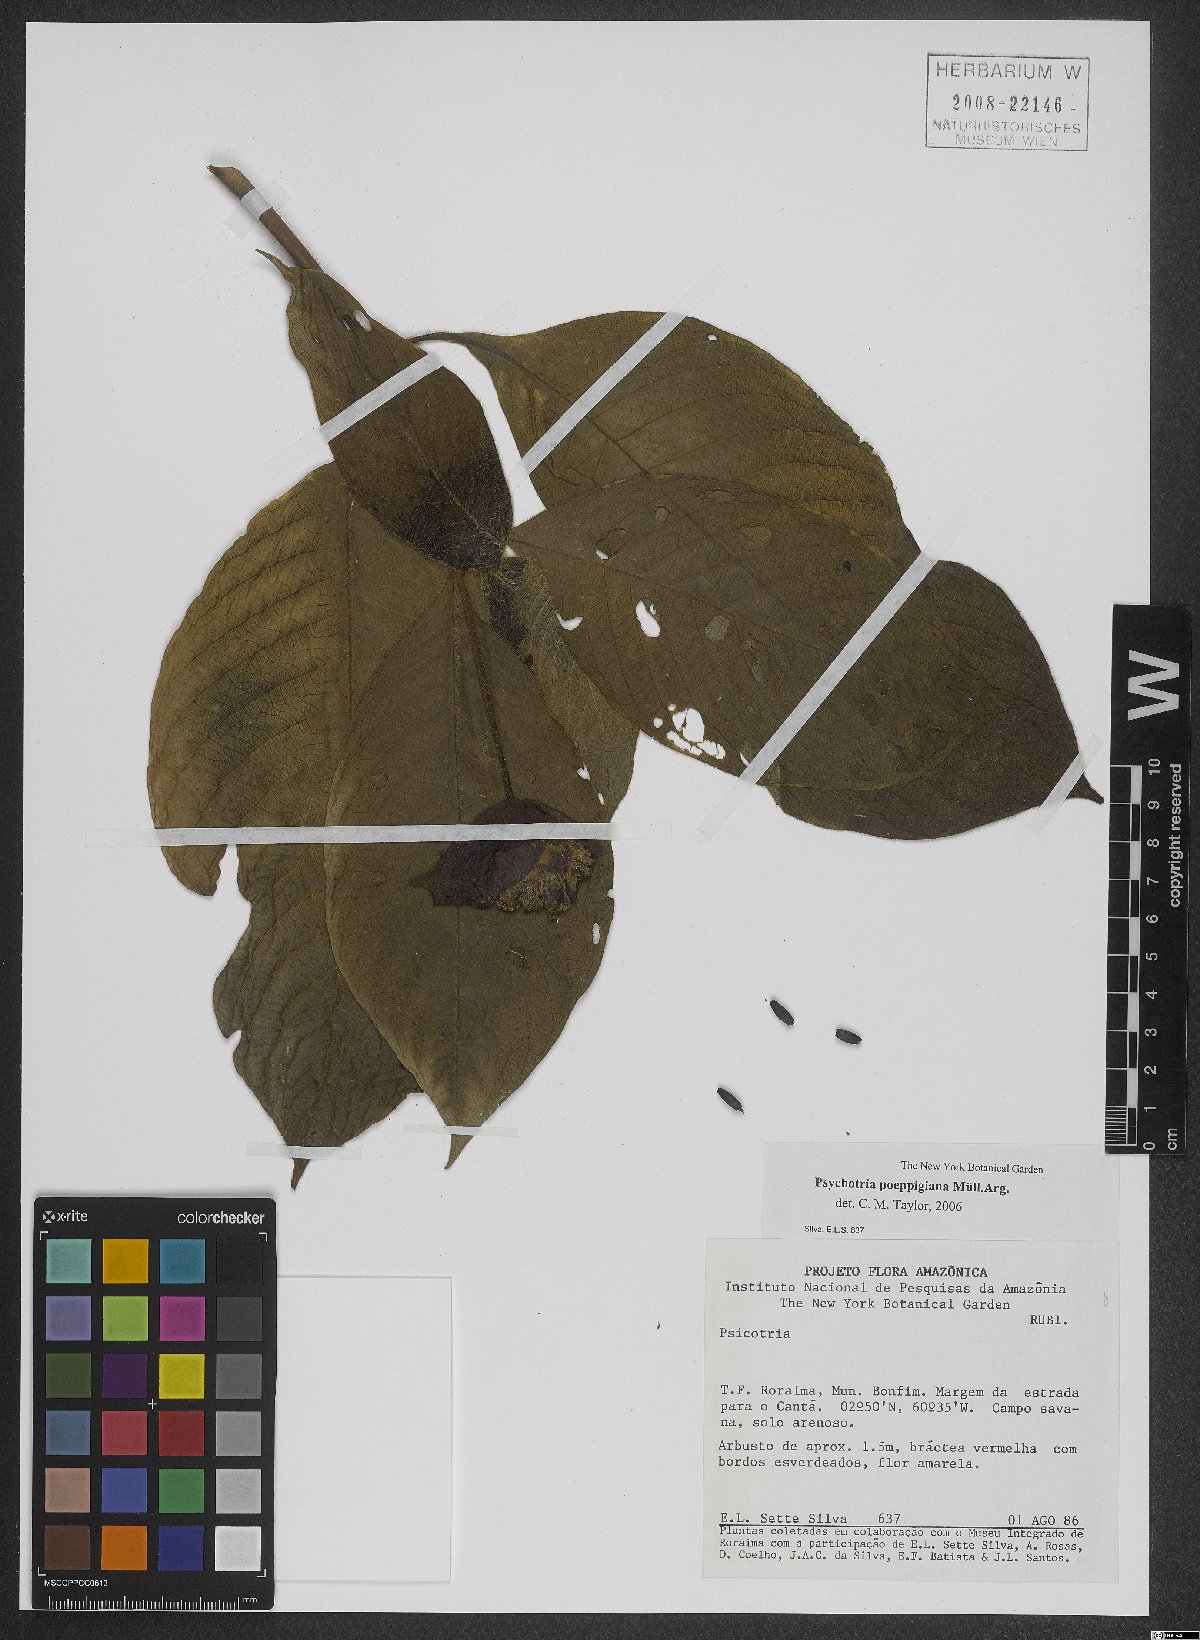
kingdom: Plantae
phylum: Tracheophyta
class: Magnoliopsida
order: Gentianales
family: Rubiaceae
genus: Palicourea
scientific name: Palicourea tomentosa
